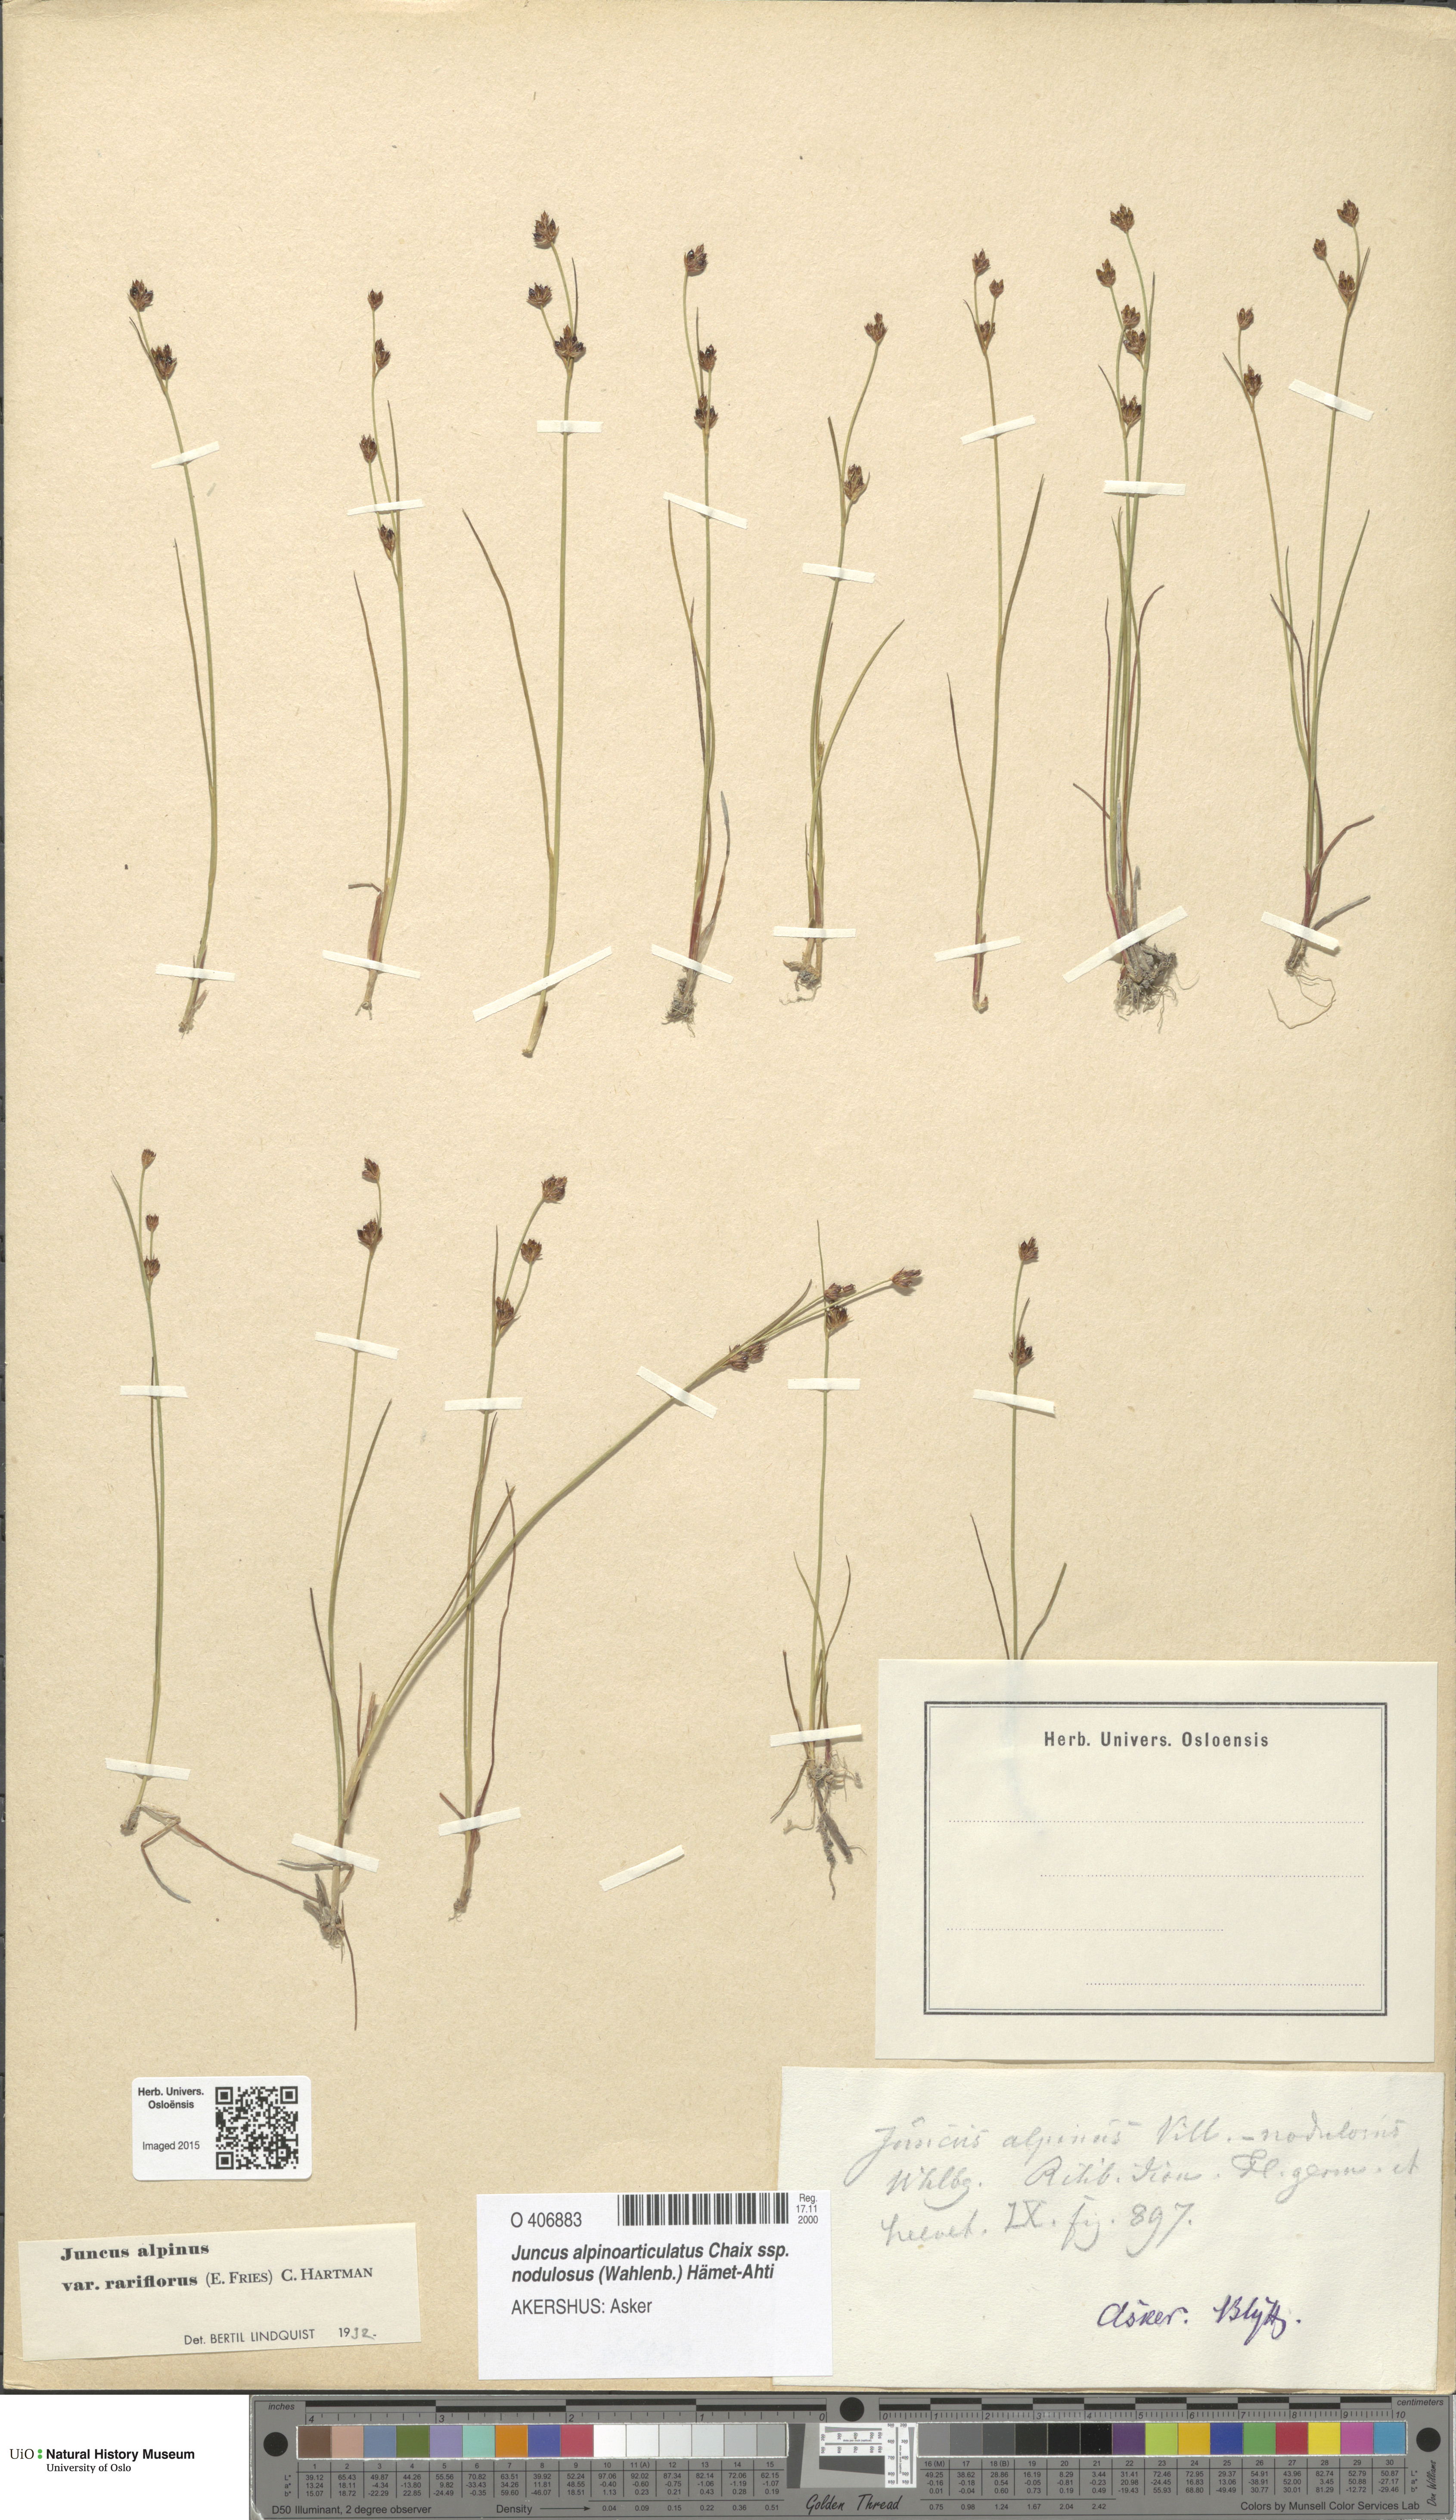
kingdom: Plantae
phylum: Tracheophyta
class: Liliopsida
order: Poales
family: Juncaceae
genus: Juncus
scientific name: Juncus alpinoarticulatus
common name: Alpine rush
